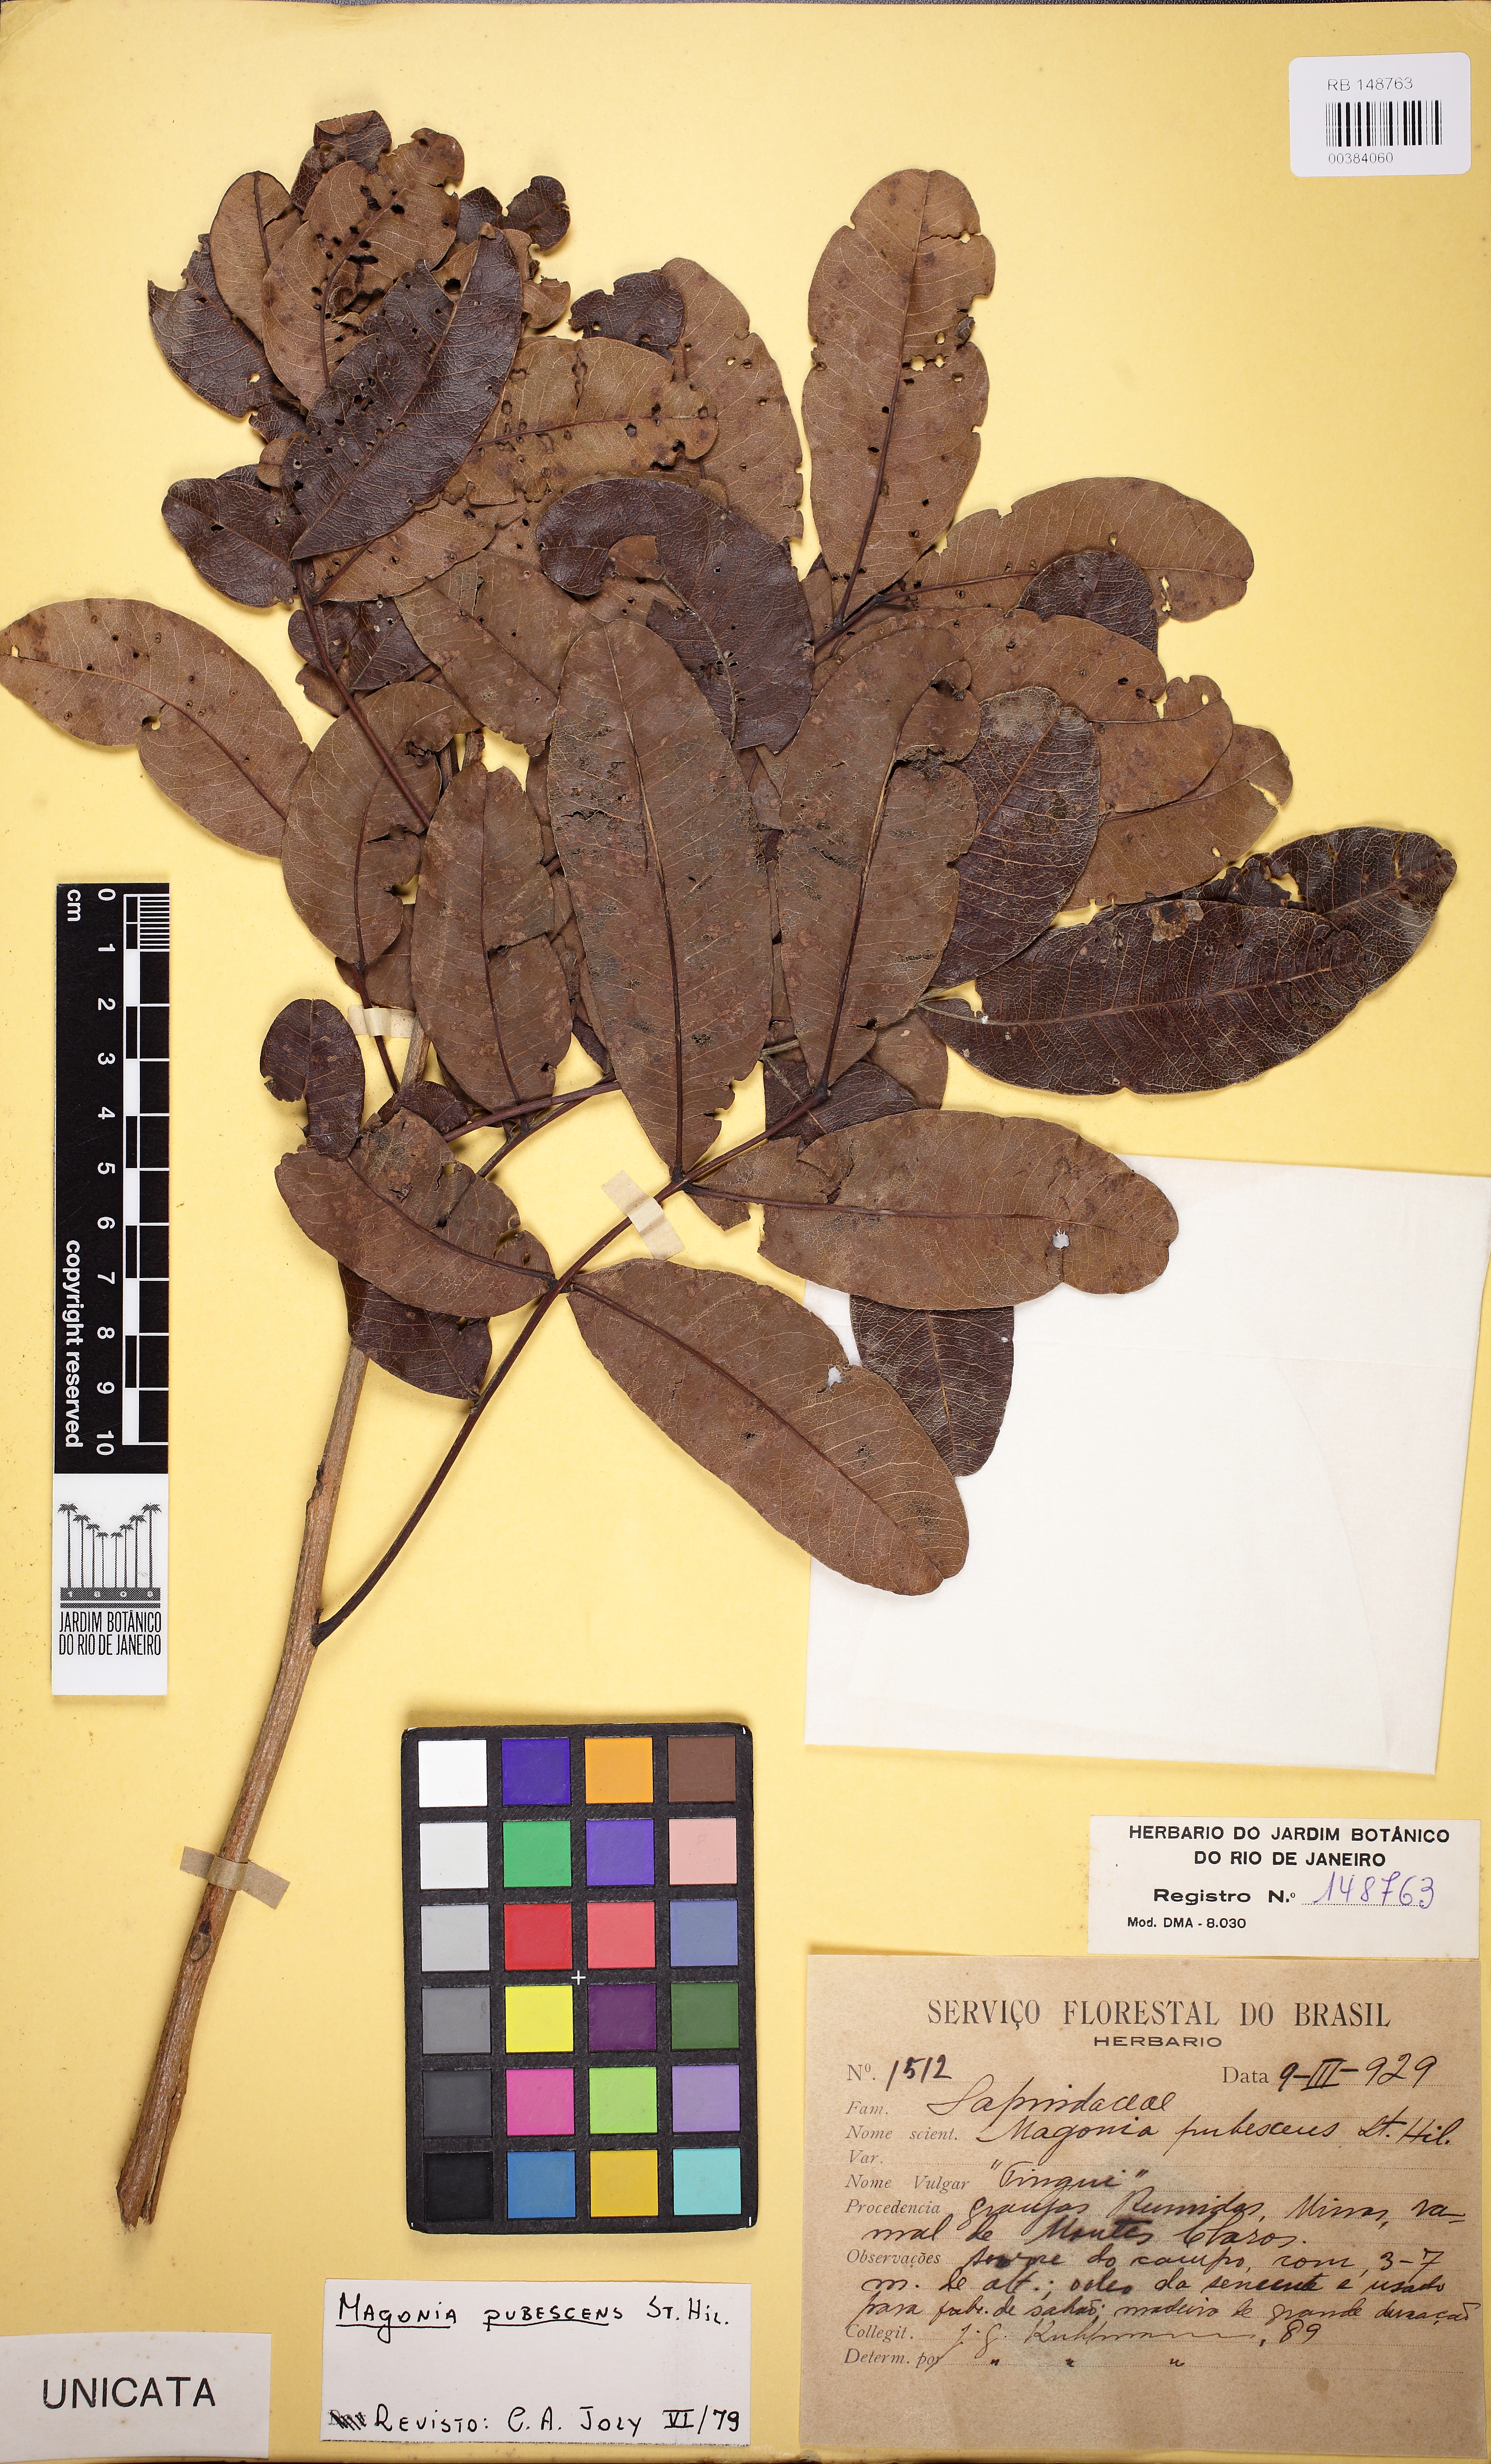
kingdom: Plantae
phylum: Tracheophyta
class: Magnoliopsida
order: Sapindales
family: Sapindaceae
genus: Magonia
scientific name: Magonia pubescens
